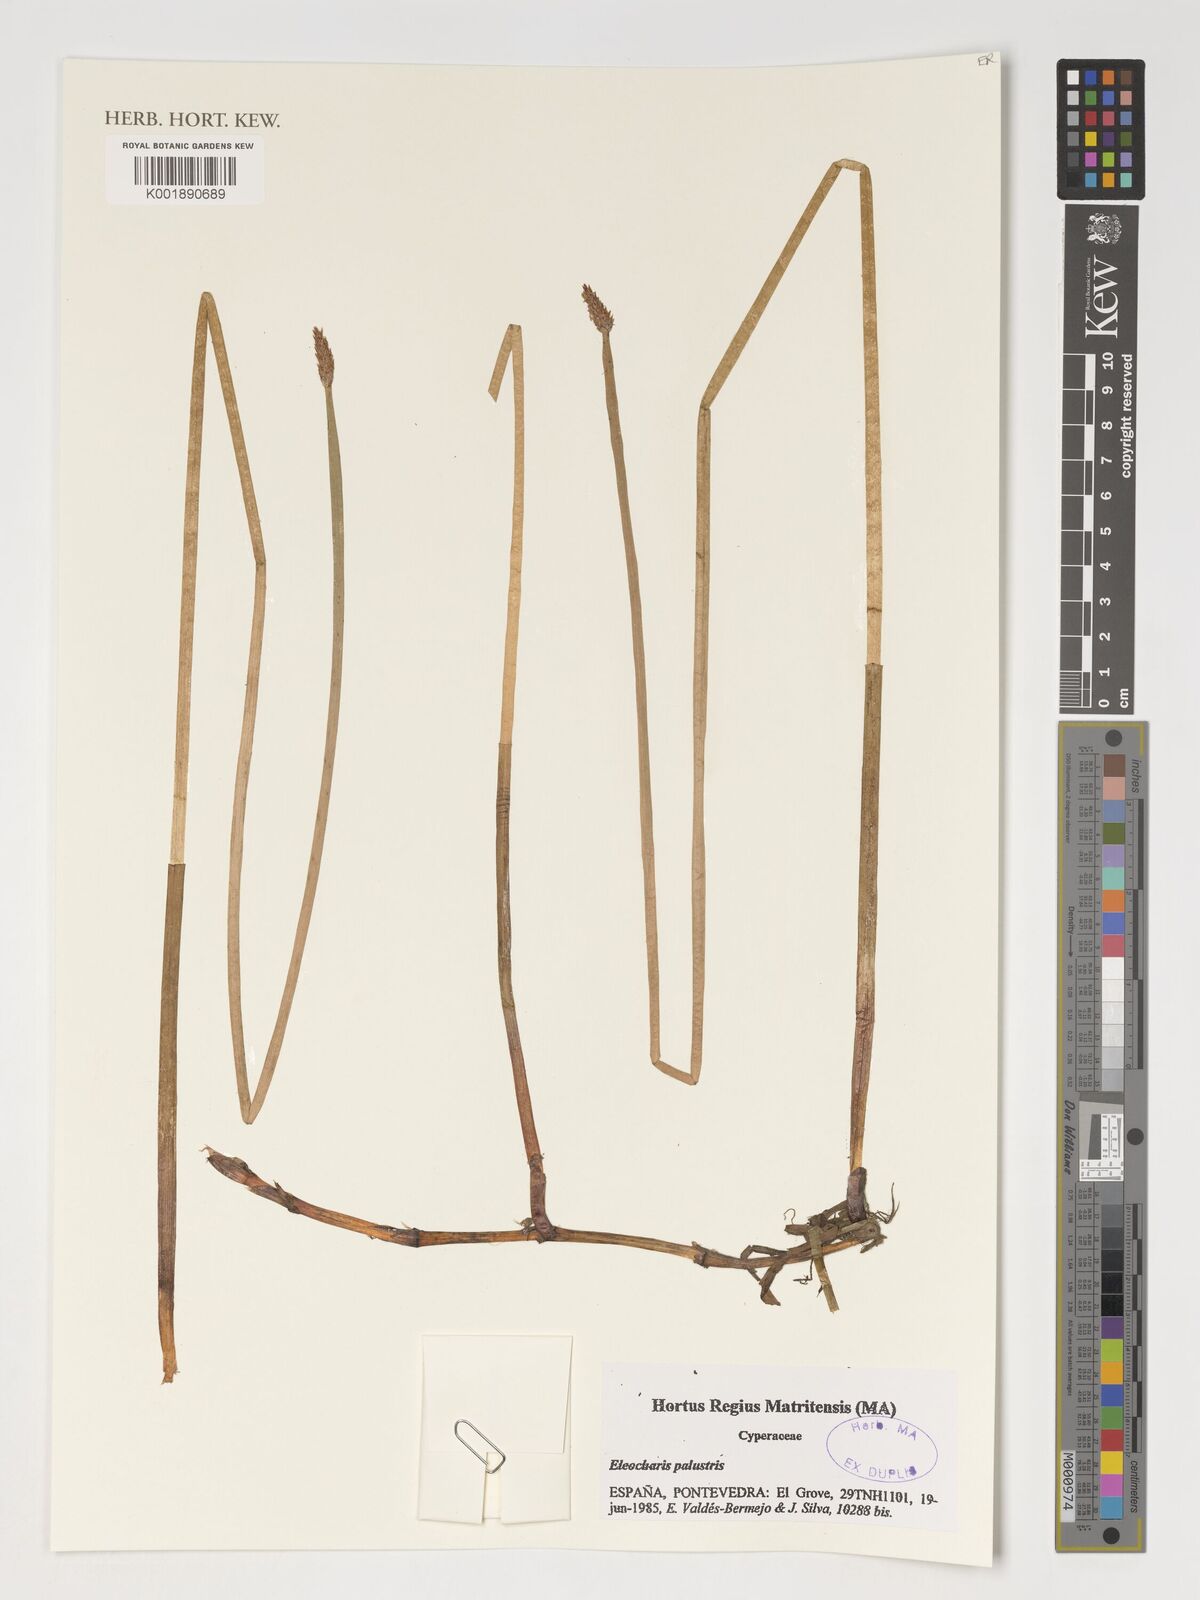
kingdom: Plantae
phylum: Tracheophyta
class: Liliopsida
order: Poales
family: Cyperaceae
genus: Eleocharis
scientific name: Eleocharis palustris
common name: Common spike-rush
